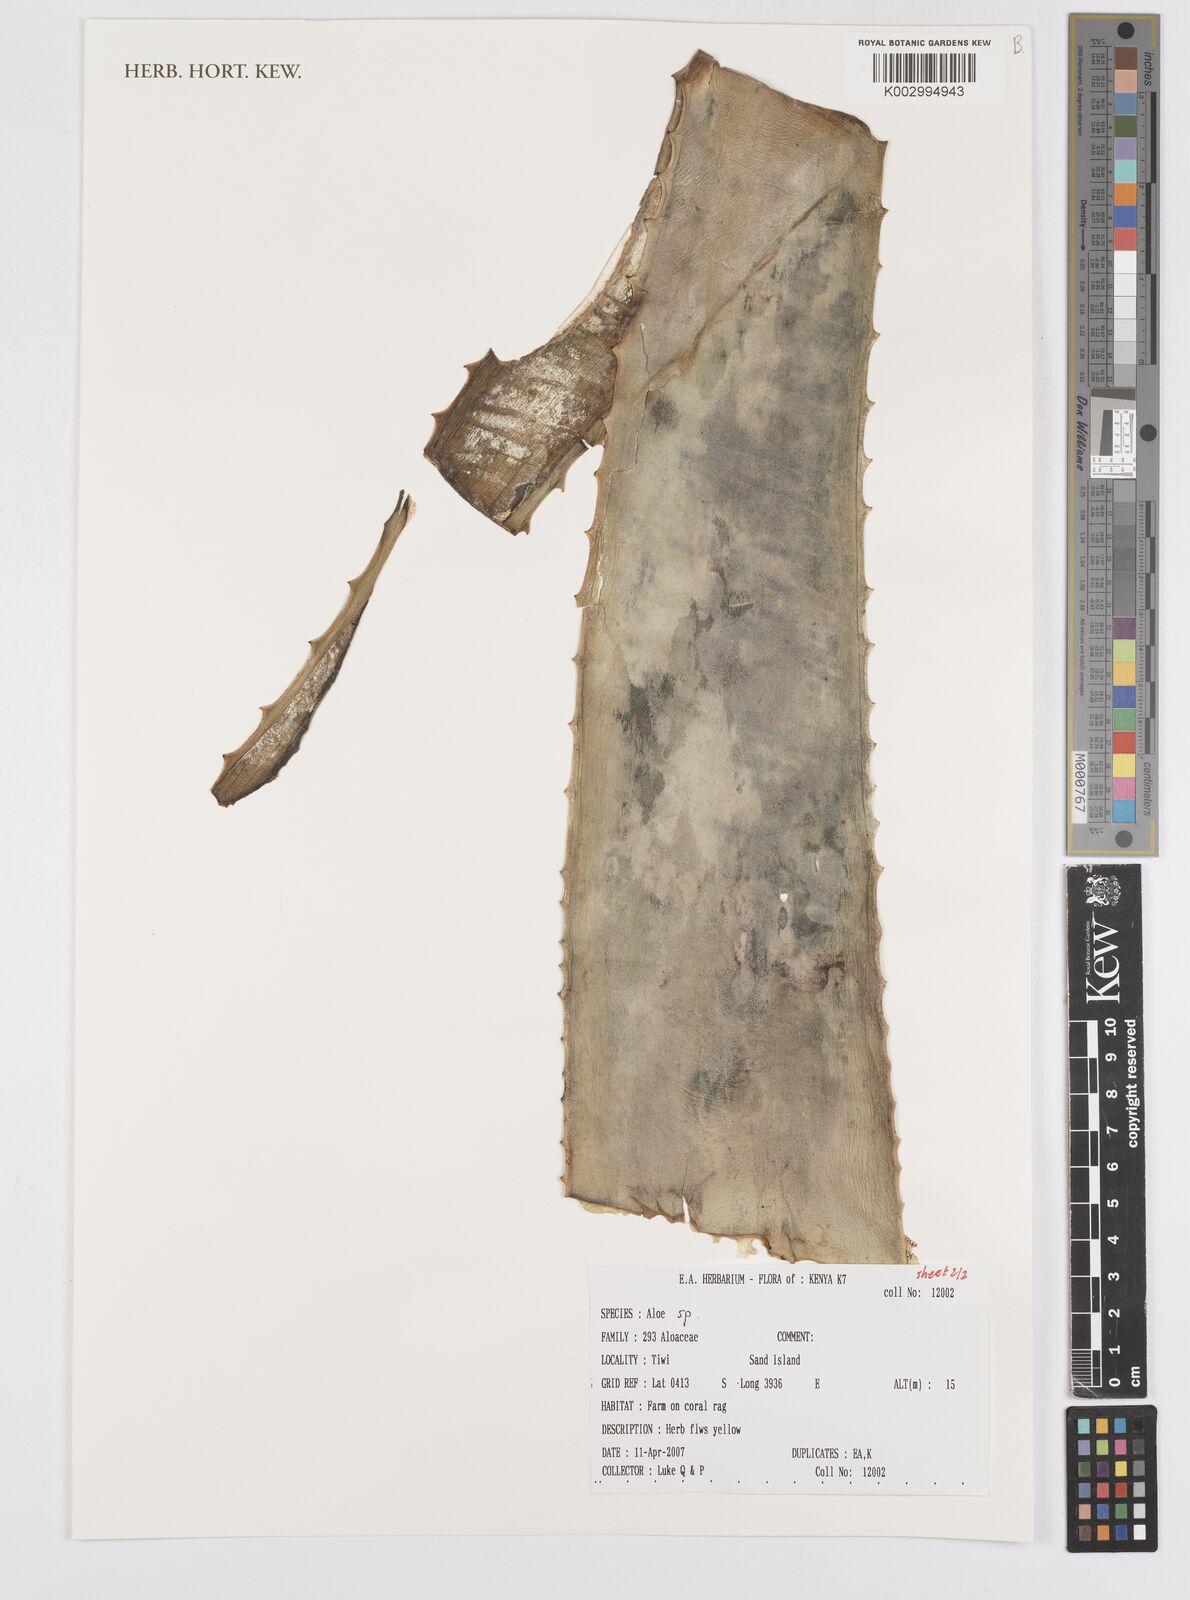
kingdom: Plantae
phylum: Tracheophyta
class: Liliopsida
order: Asparagales
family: Asphodelaceae
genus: Aloe
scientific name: Aloe
